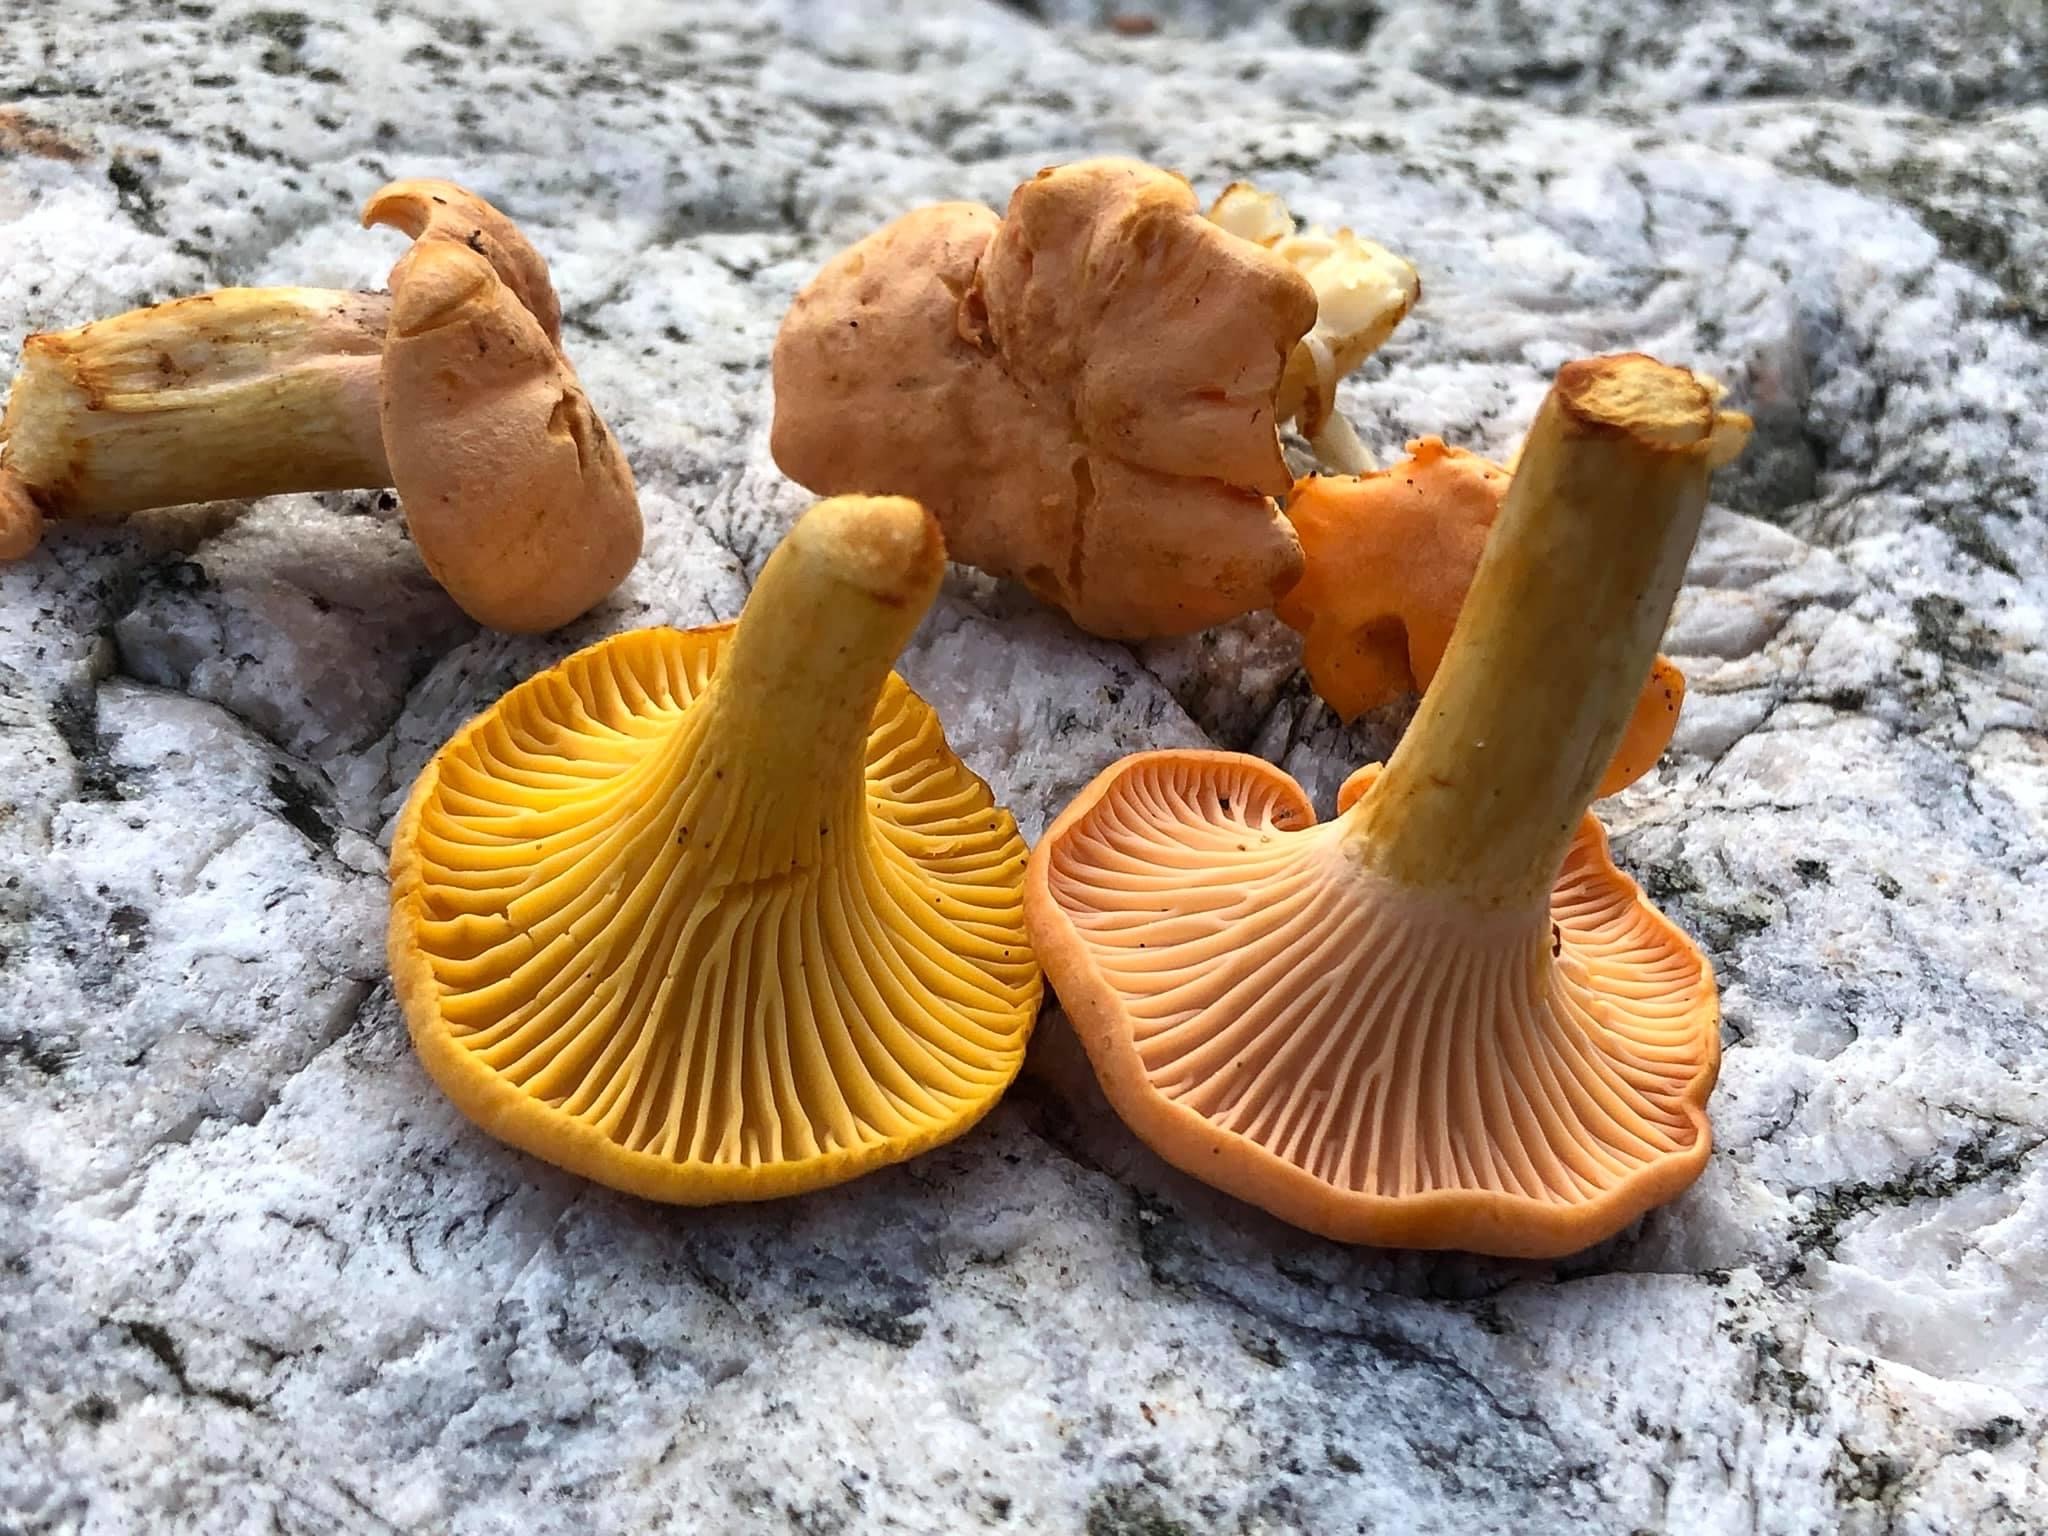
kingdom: Fungi
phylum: Basidiomycota
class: Agaricomycetes
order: Cantharellales
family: Hydnaceae
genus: Cantharellus
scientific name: Cantharellus cibarius
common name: almindelig kantarel
